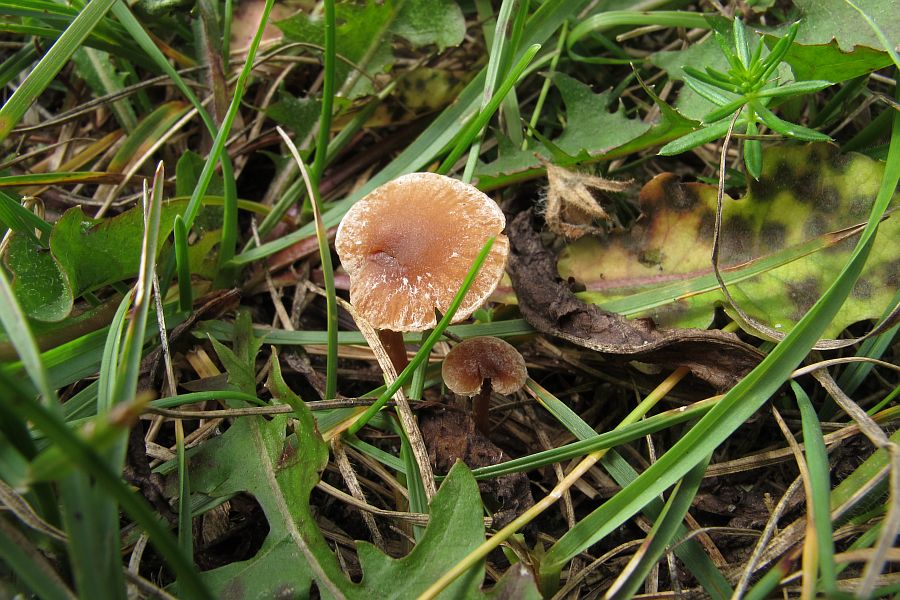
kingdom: Fungi
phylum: Basidiomycota
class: Agaricomycetes
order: Agaricales
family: Tubariaceae
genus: Tubaria
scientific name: Tubaria furfuracea
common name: kliddet fnughat
